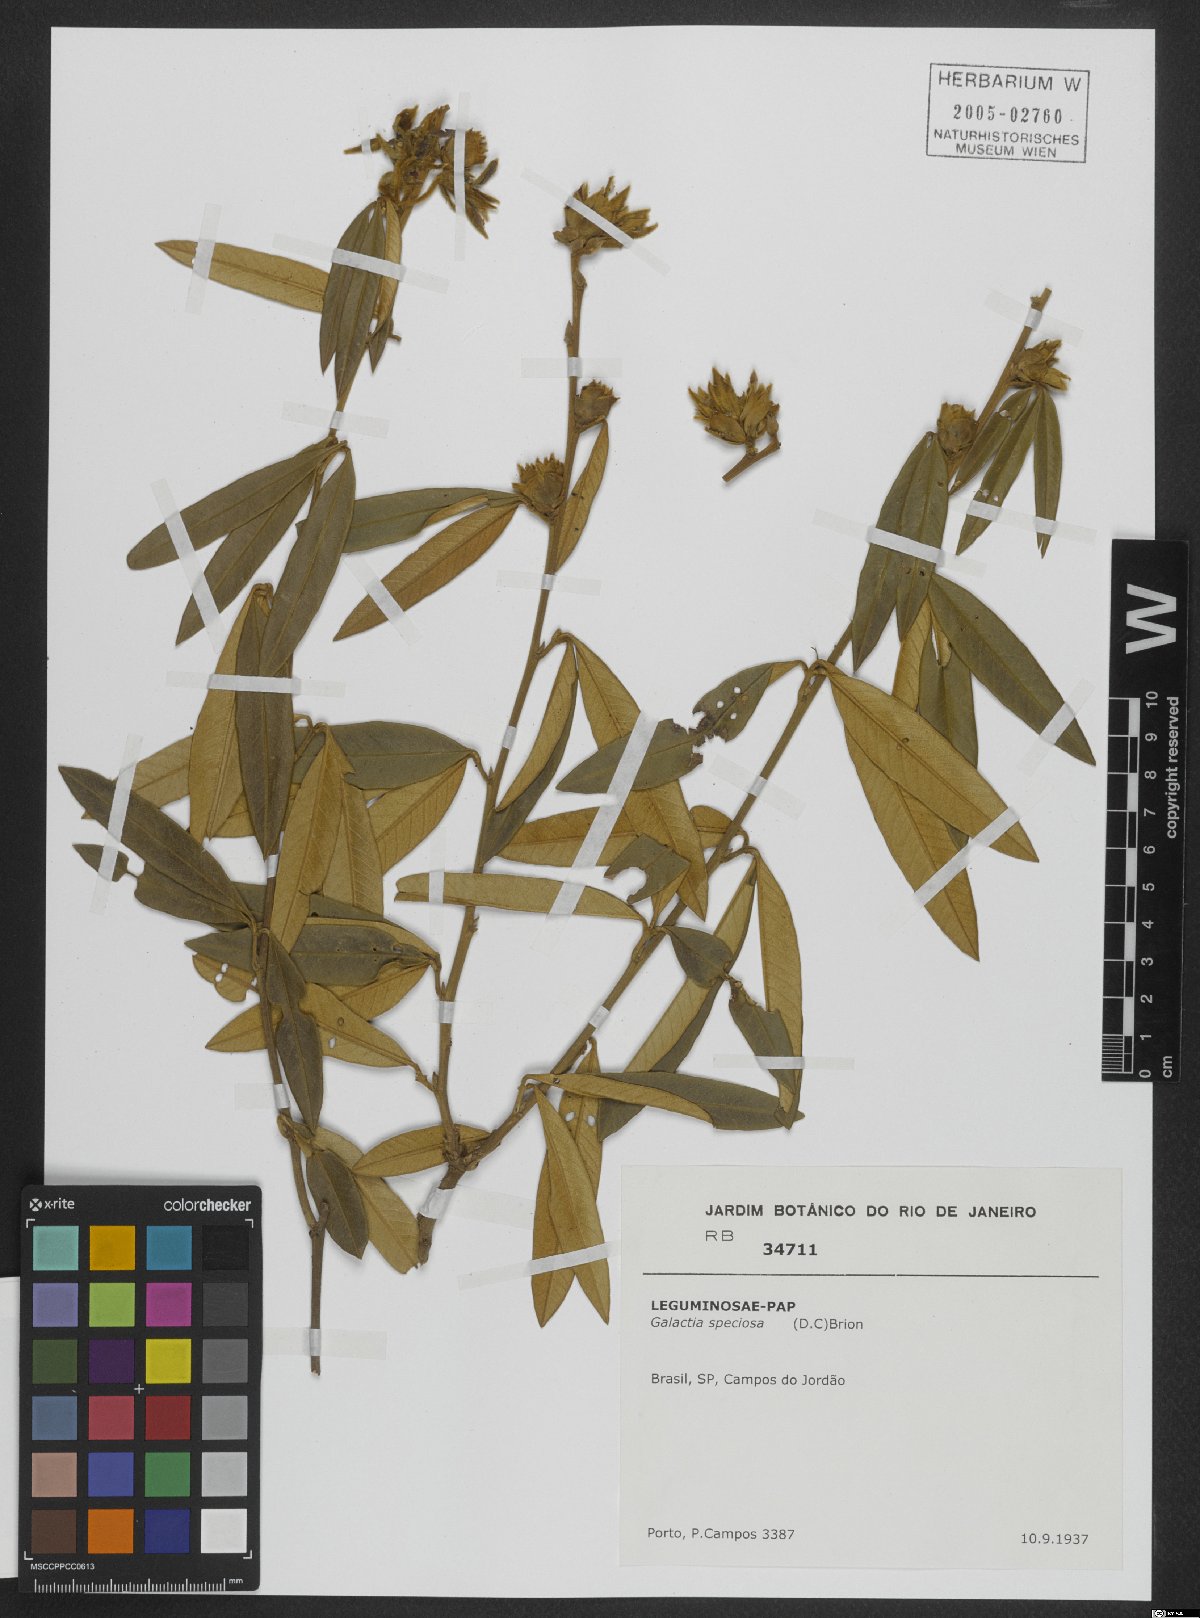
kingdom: Plantae
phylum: Tracheophyta
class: Magnoliopsida
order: Fabales
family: Fabaceae
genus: Collaea
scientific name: Collaea speciosa
